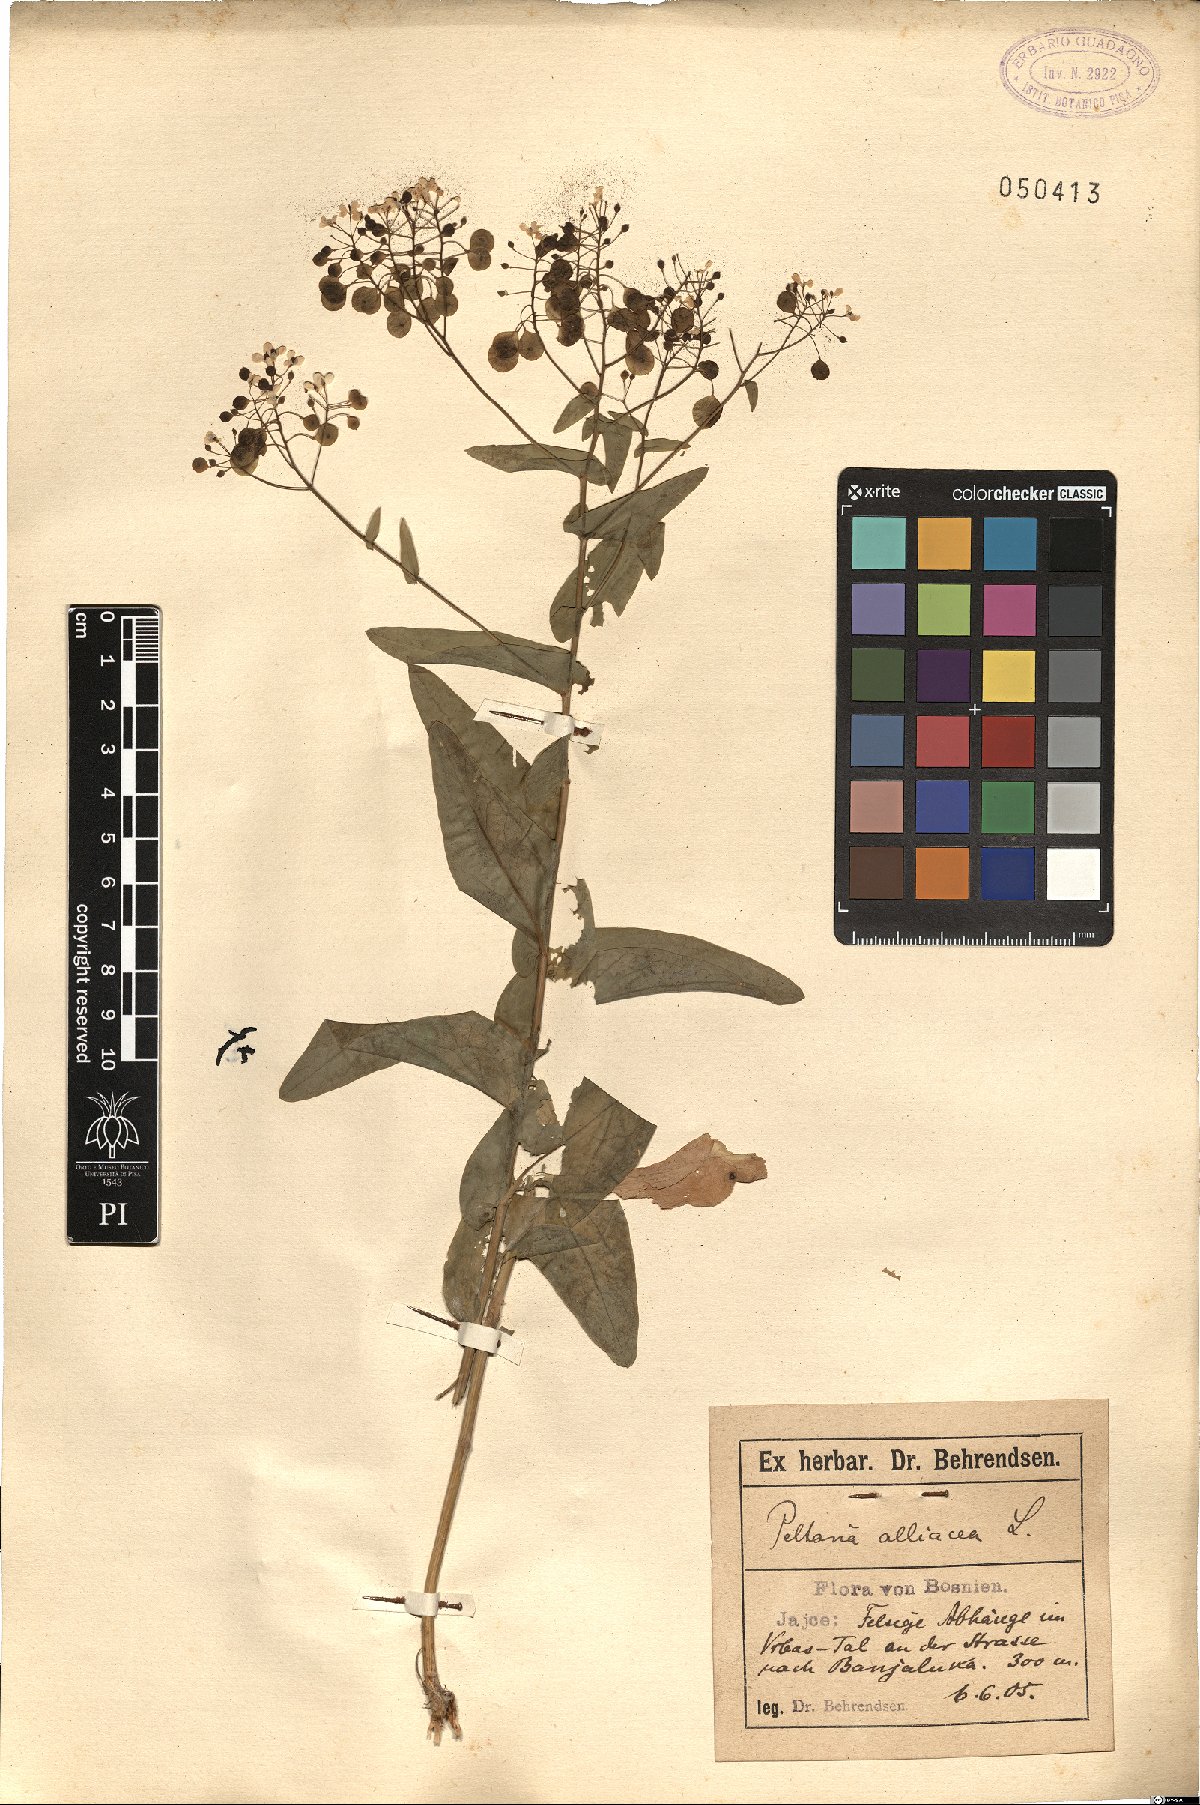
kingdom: Plantae
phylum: Tracheophyta
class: Magnoliopsida
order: Brassicales
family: Brassicaceae
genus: Peltaria
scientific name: Peltaria alliacea
